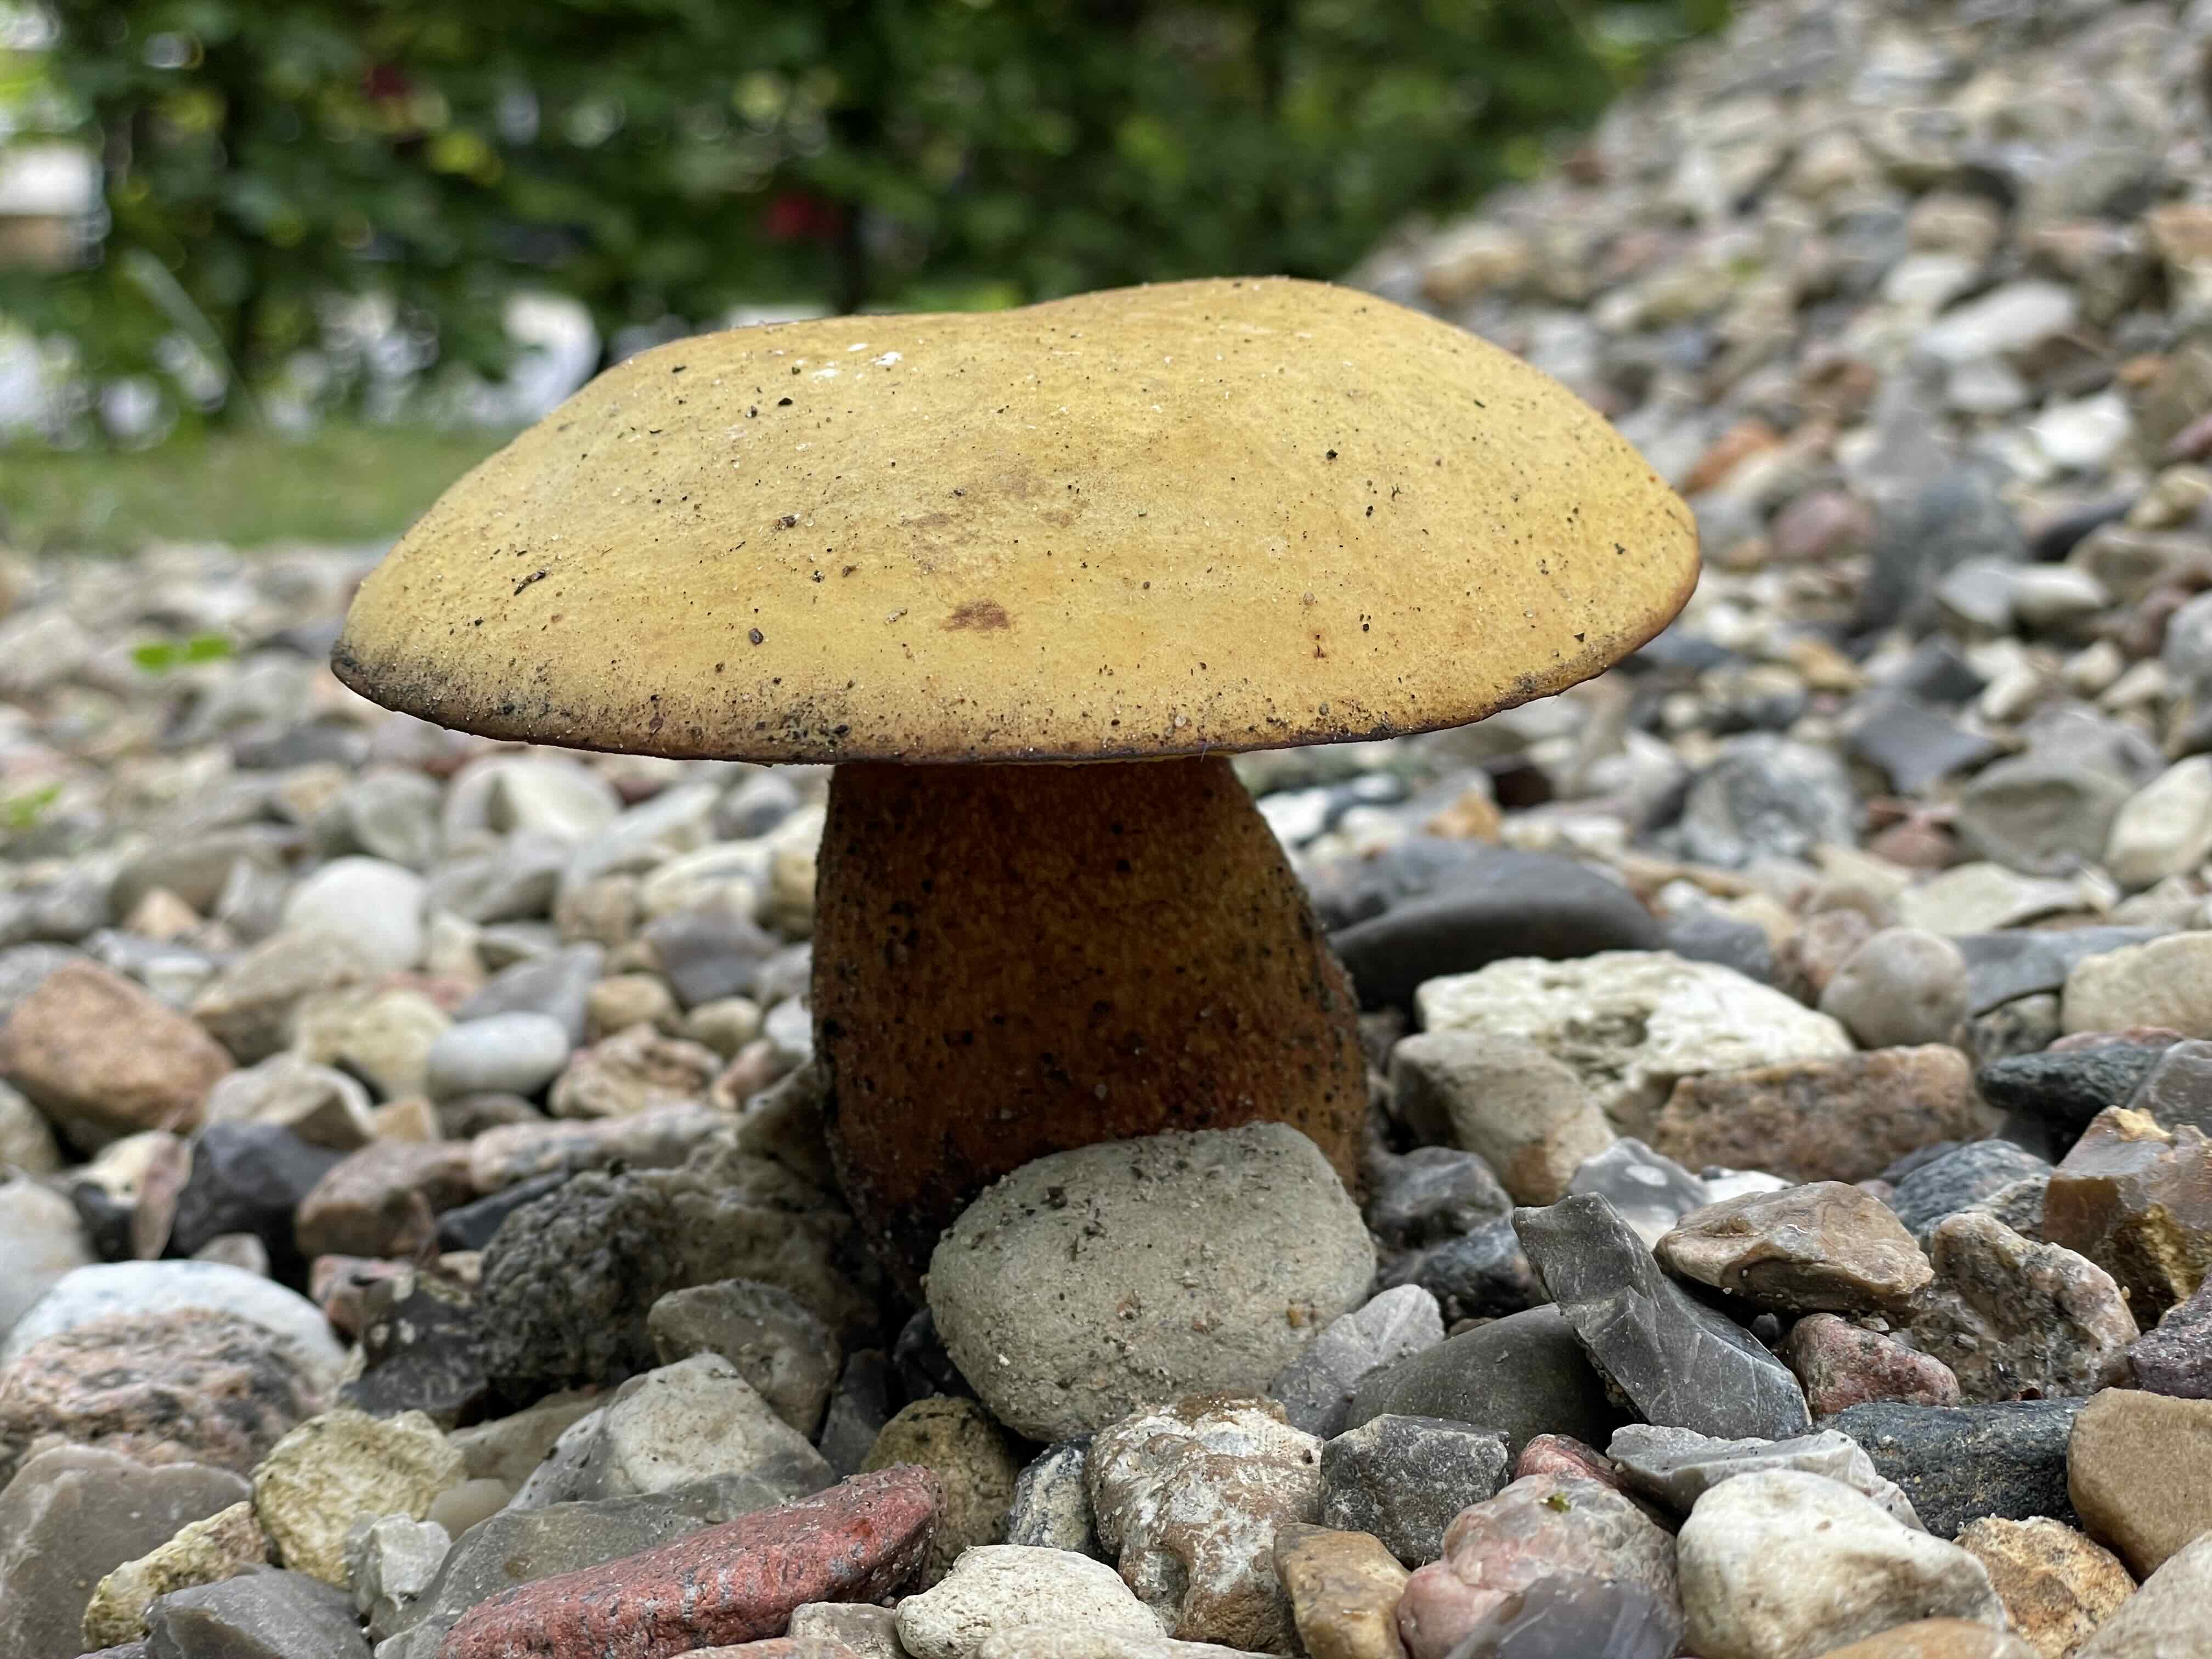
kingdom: Fungi
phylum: Basidiomycota
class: Agaricomycetes
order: Boletales
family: Boletaceae
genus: Suillellus
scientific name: Suillellus luridus
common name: netstokket indigorørhat
